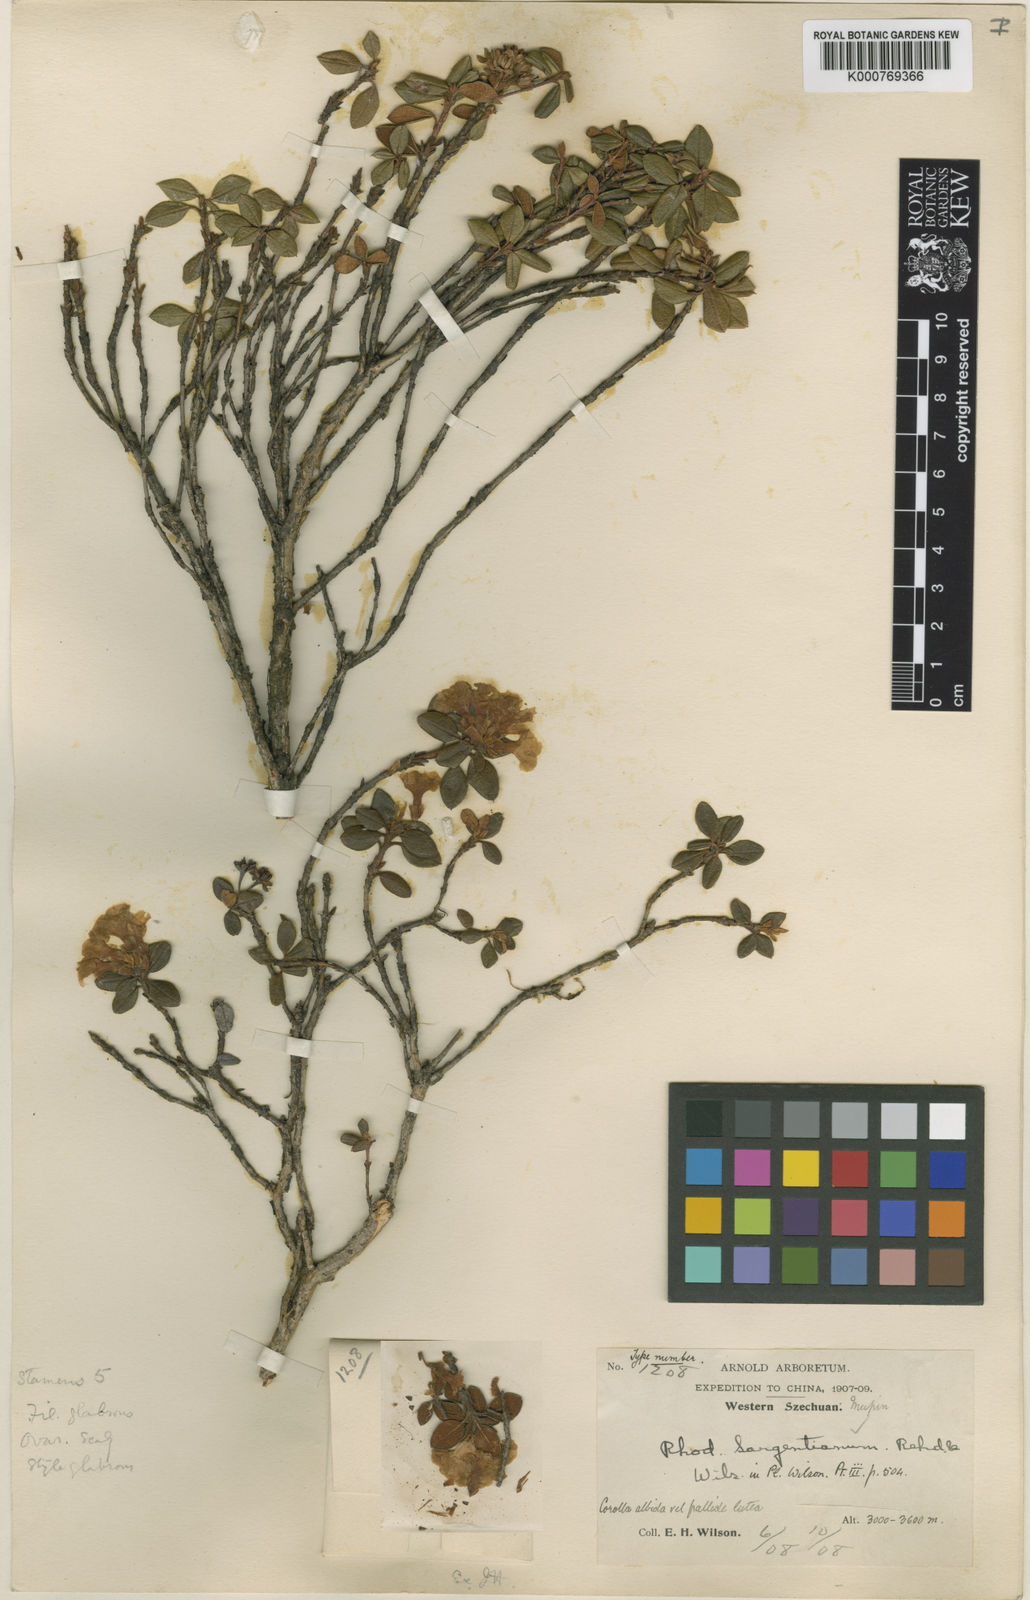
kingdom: Plantae
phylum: Tracheophyta
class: Magnoliopsida
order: Ericales
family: Ericaceae
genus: Rhododendron
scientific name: Rhododendron sargentianum
